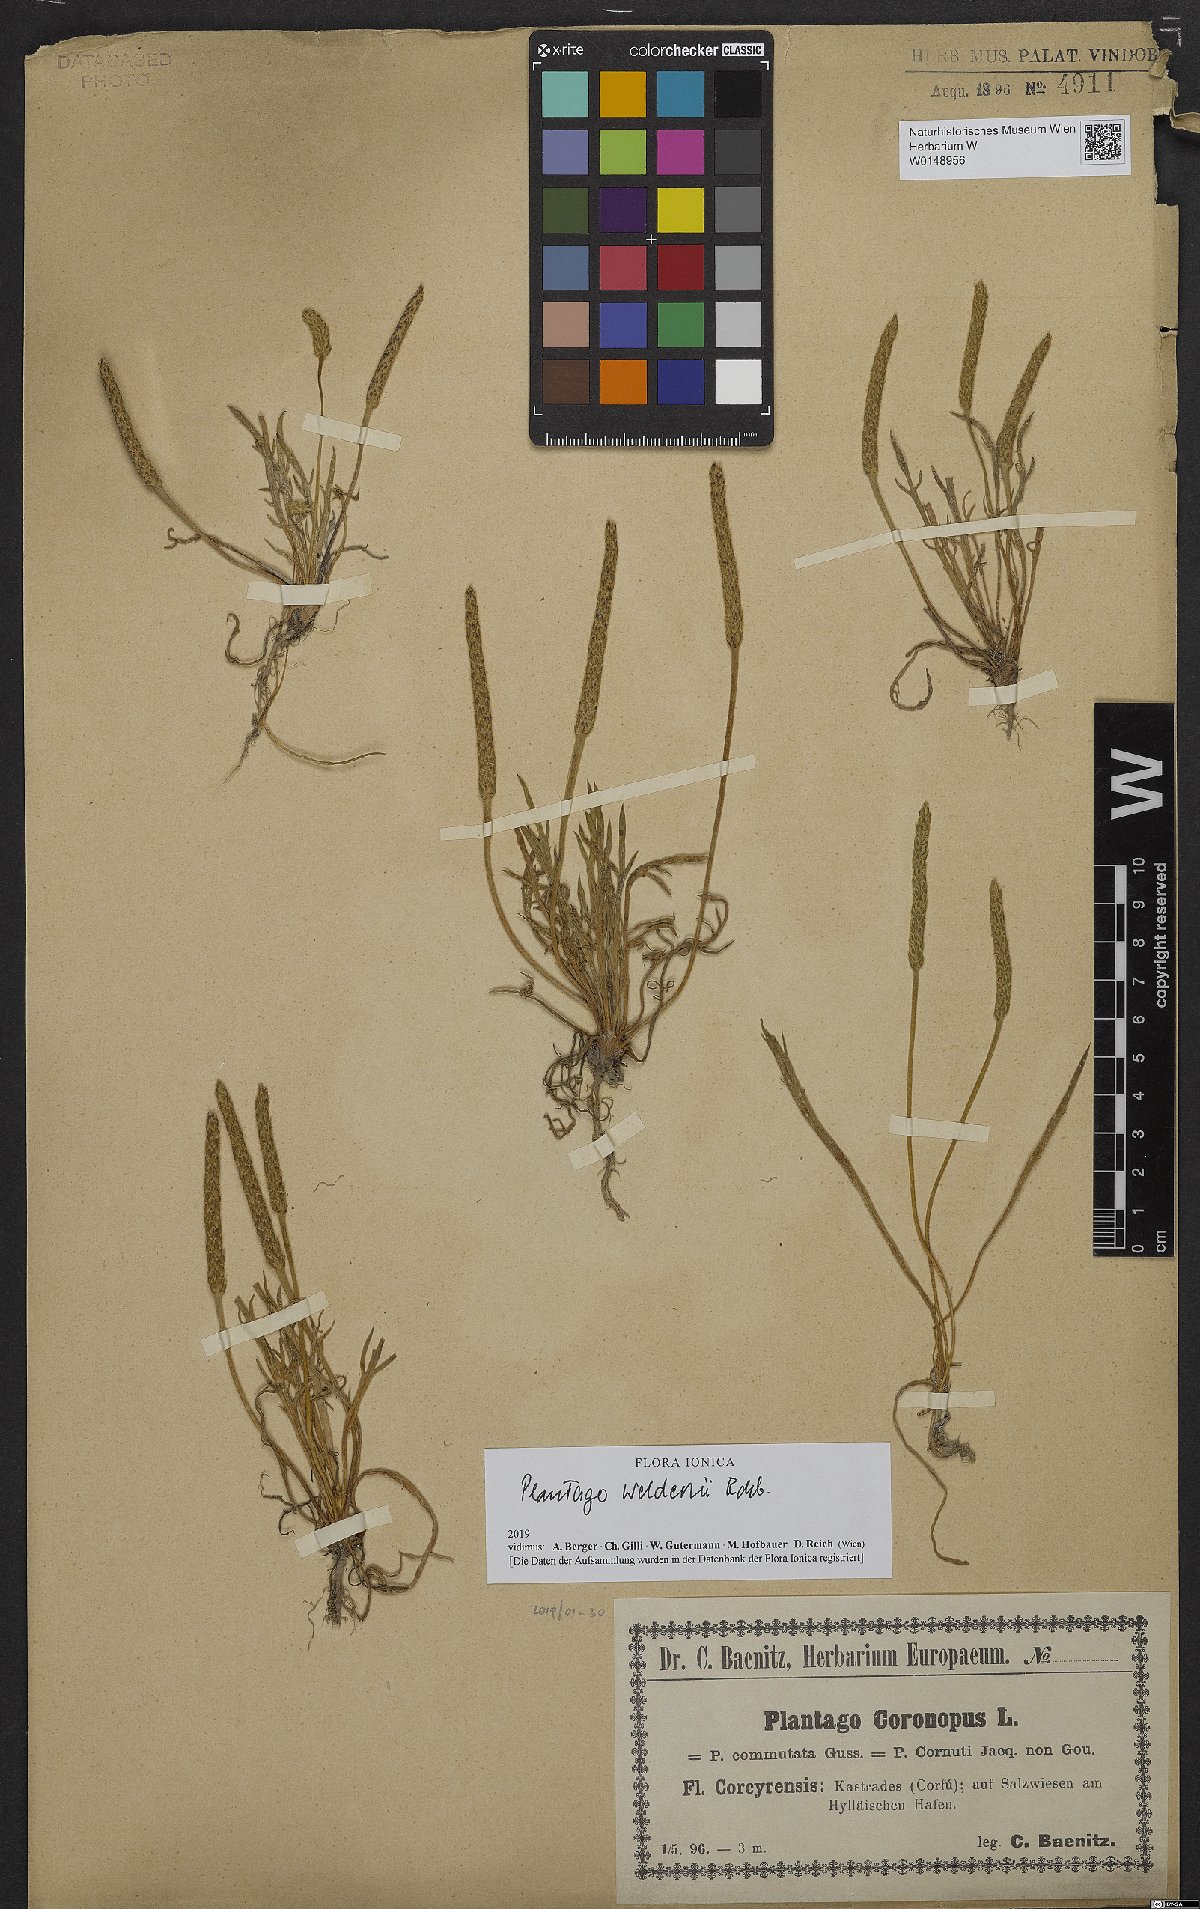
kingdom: Plantae
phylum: Tracheophyta
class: Magnoliopsida
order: Lamiales
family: Plantaginaceae
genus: Plantago
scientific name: Plantago weldenii
